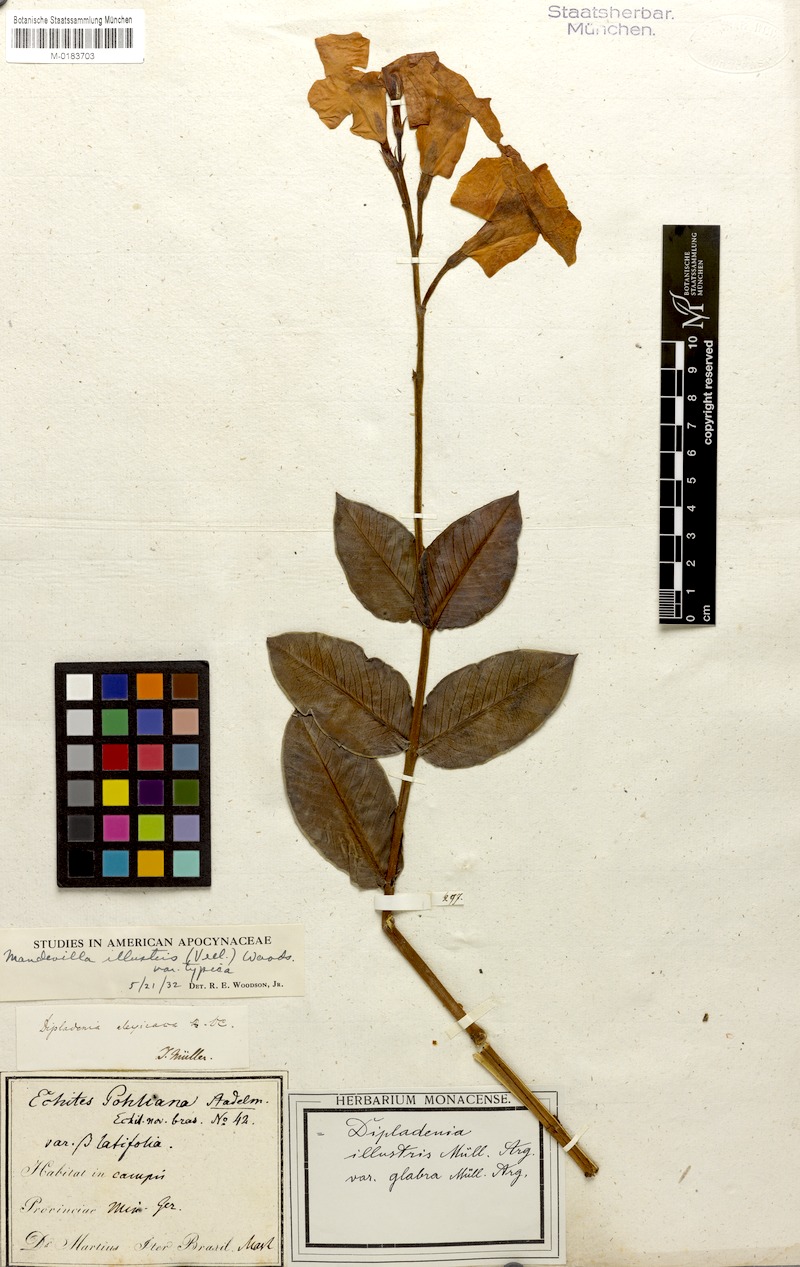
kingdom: Plantae
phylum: Tracheophyta
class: Magnoliopsida
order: Gentianales
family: Apocynaceae
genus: Mandevilla
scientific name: Mandevilla illustris
